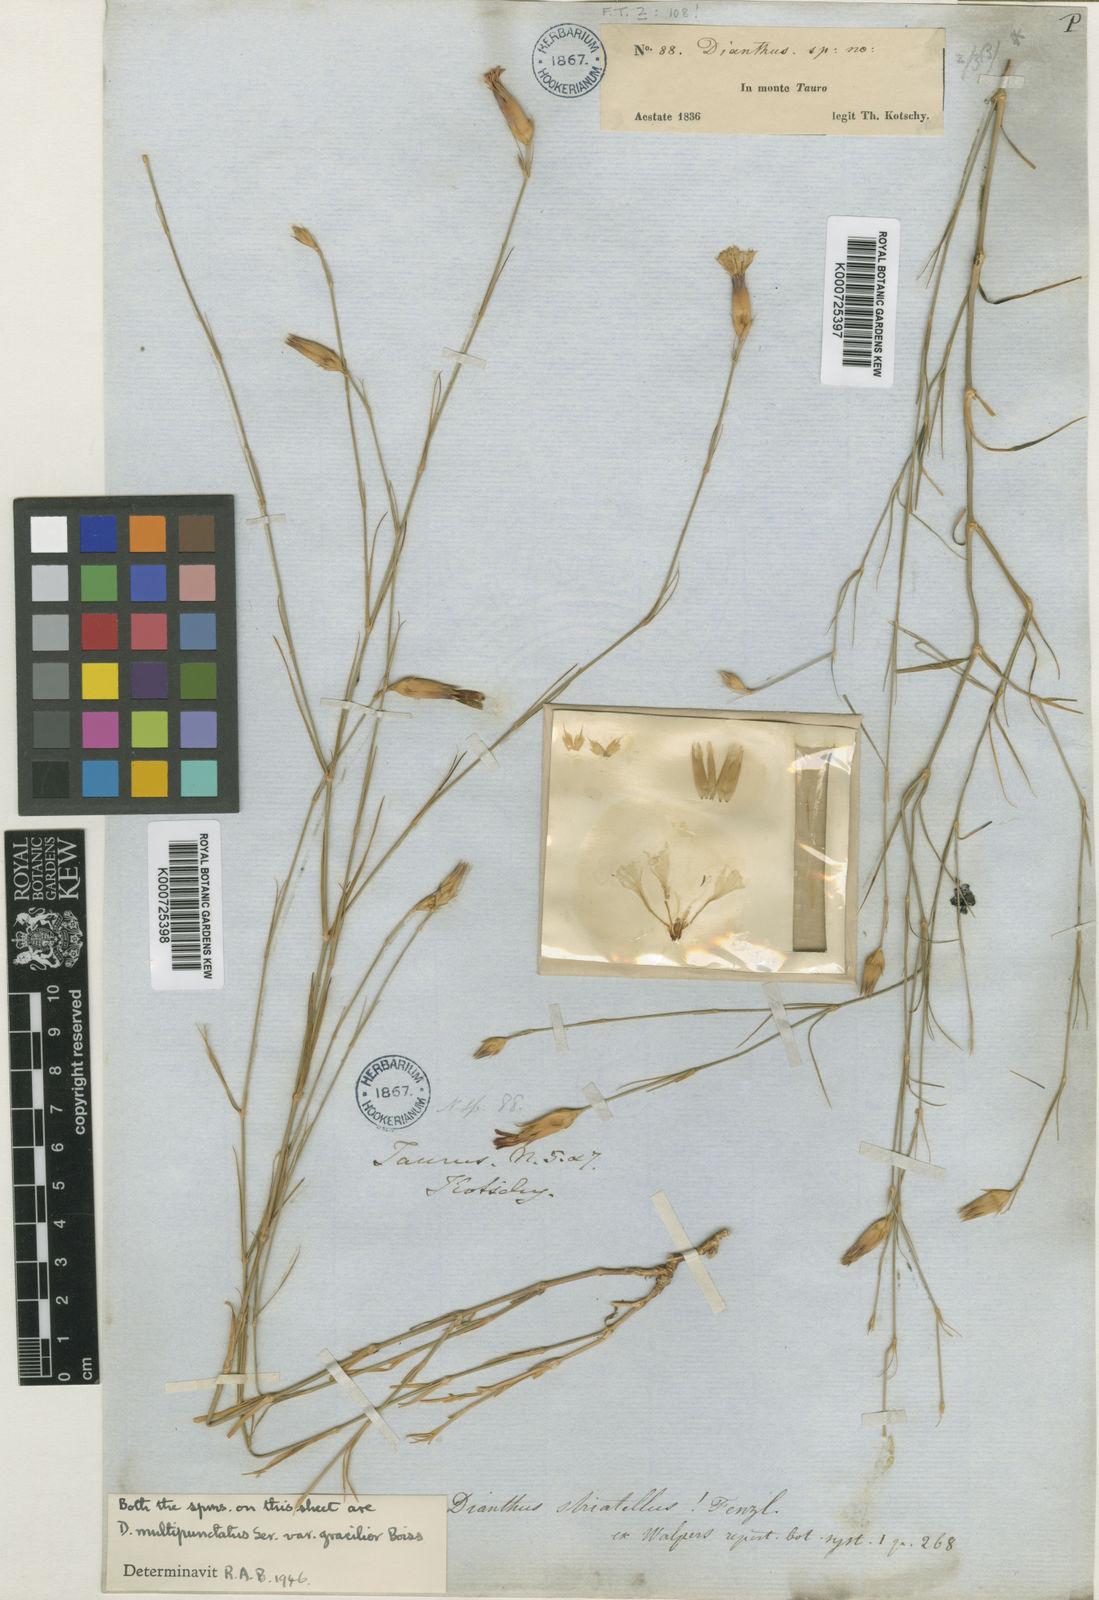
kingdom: Plantae
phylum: Tracheophyta
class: Magnoliopsida
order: Caryophyllales
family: Caryophyllaceae
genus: Dianthus
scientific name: Dianthus strictus
